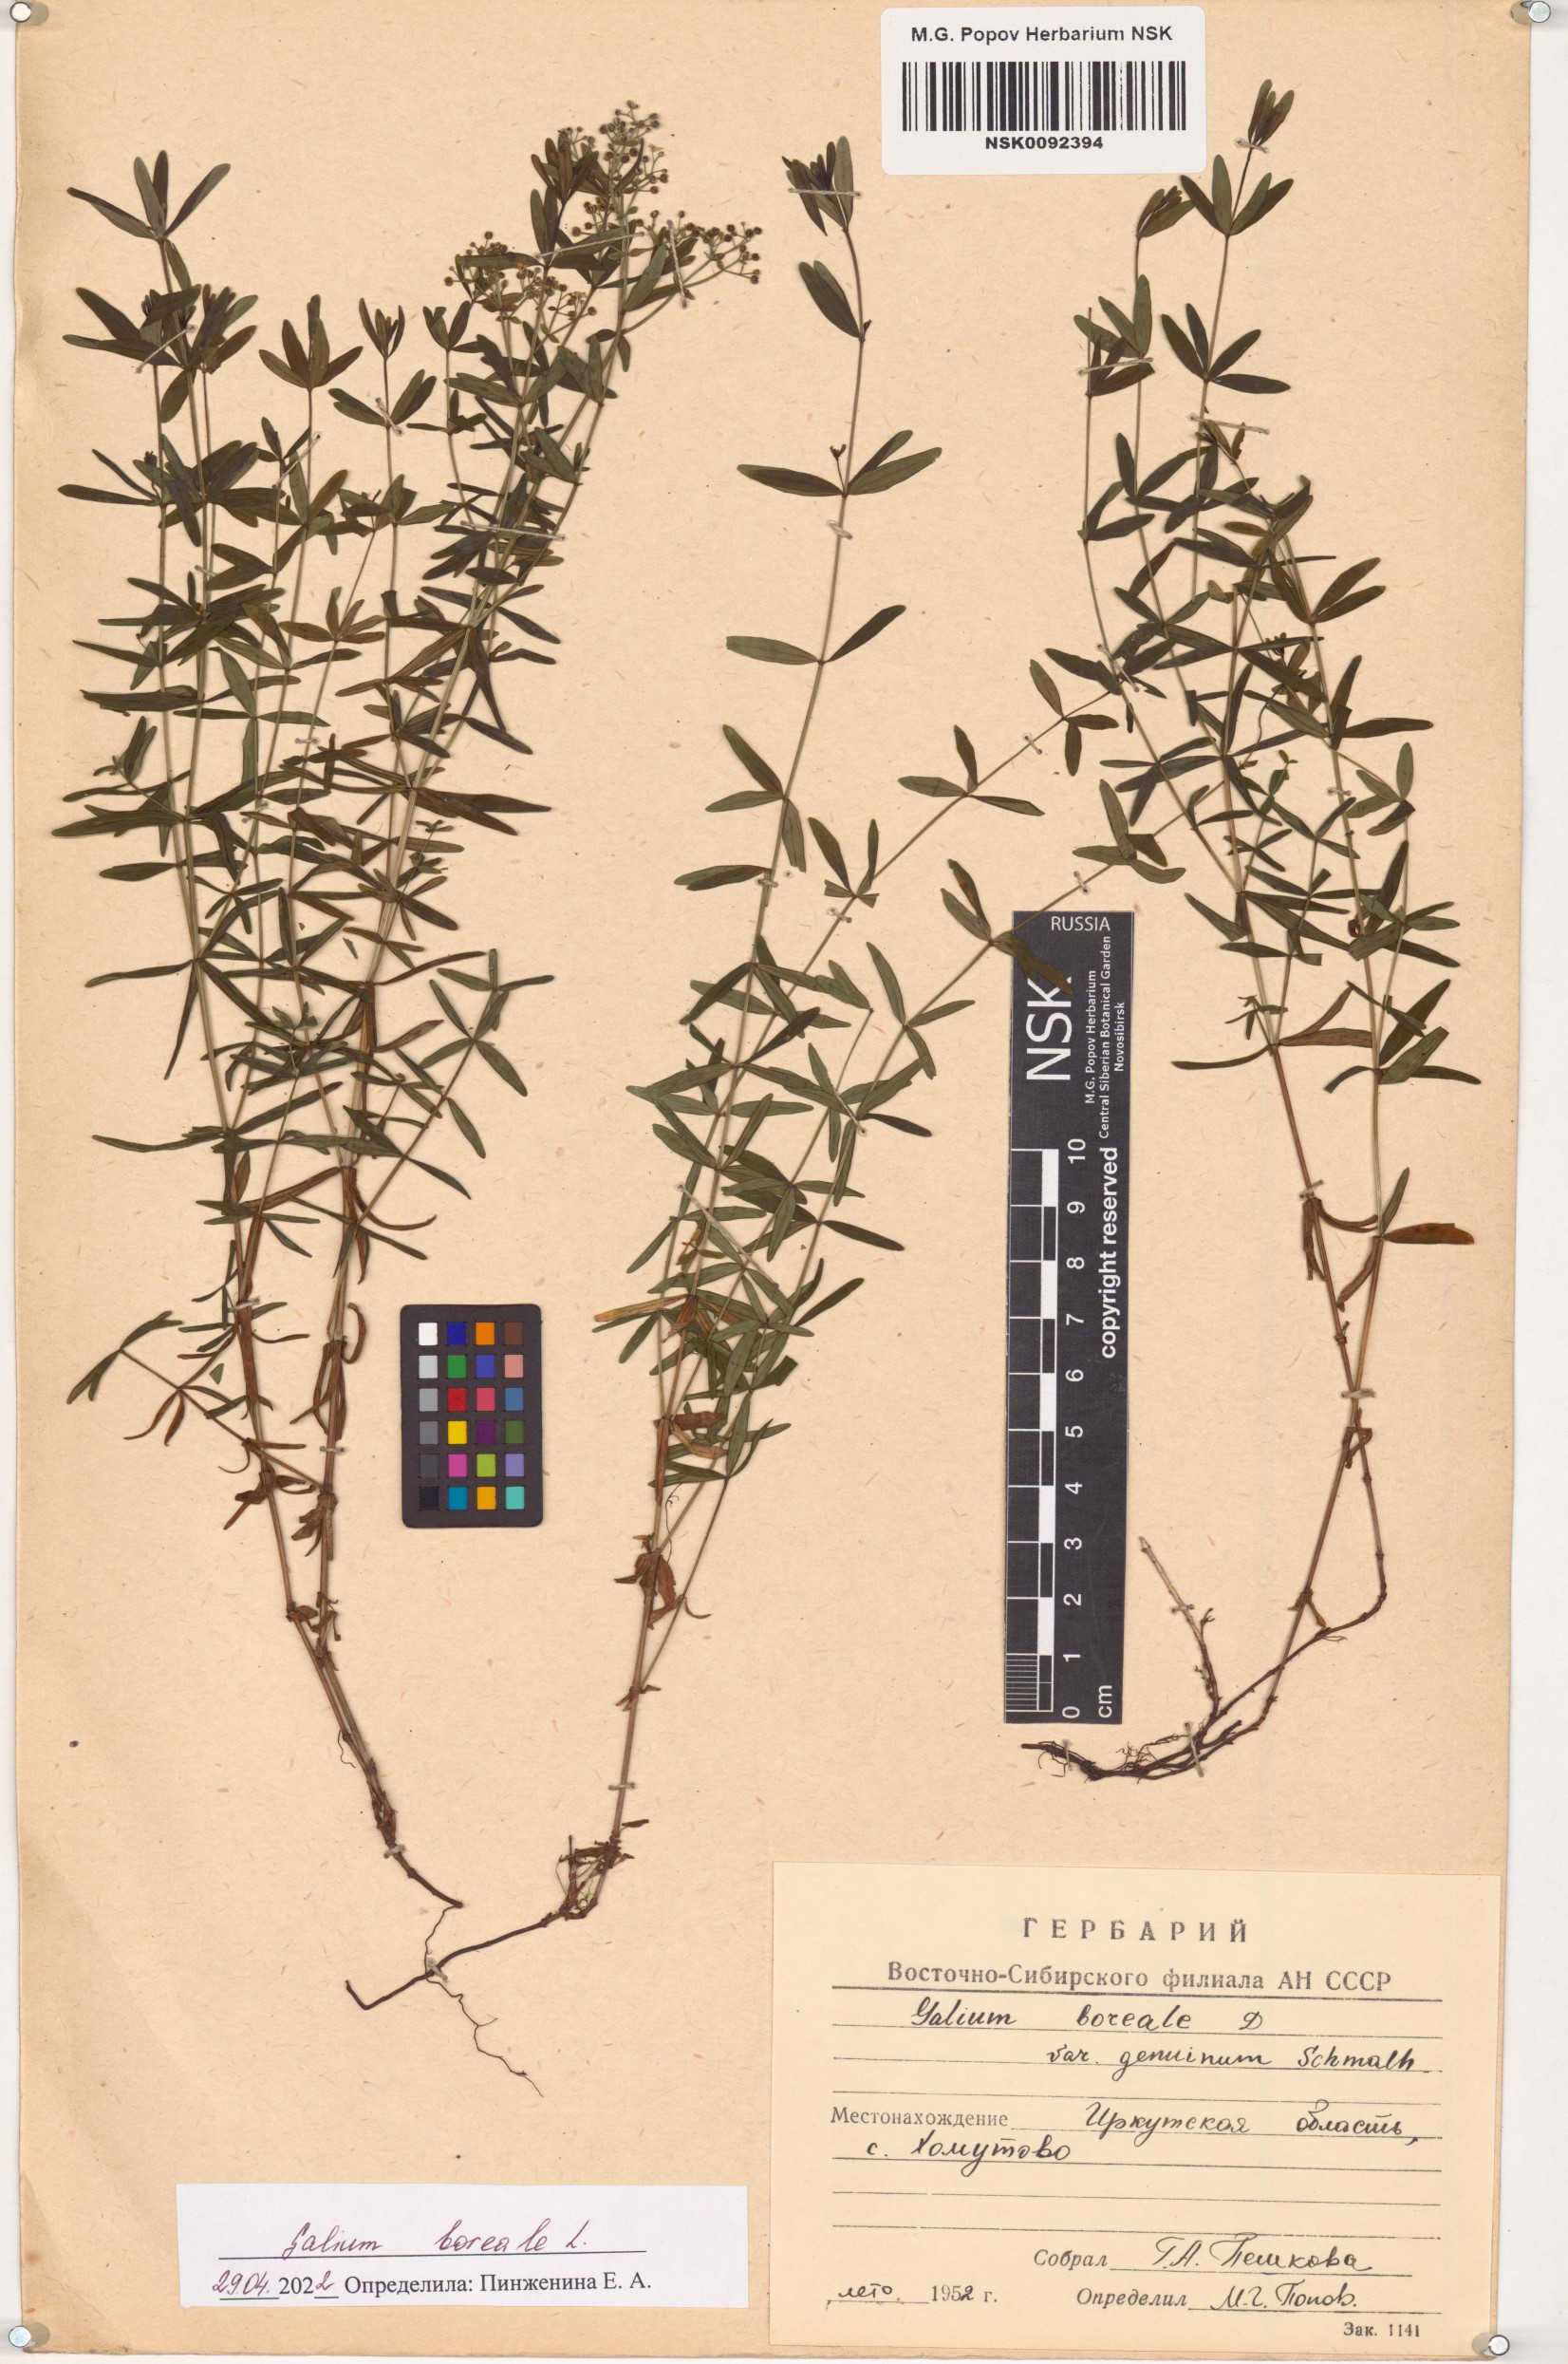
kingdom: Plantae
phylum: Tracheophyta
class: Magnoliopsida
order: Gentianales
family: Rubiaceae
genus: Galium
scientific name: Galium boreale
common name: Northern bedstraw
